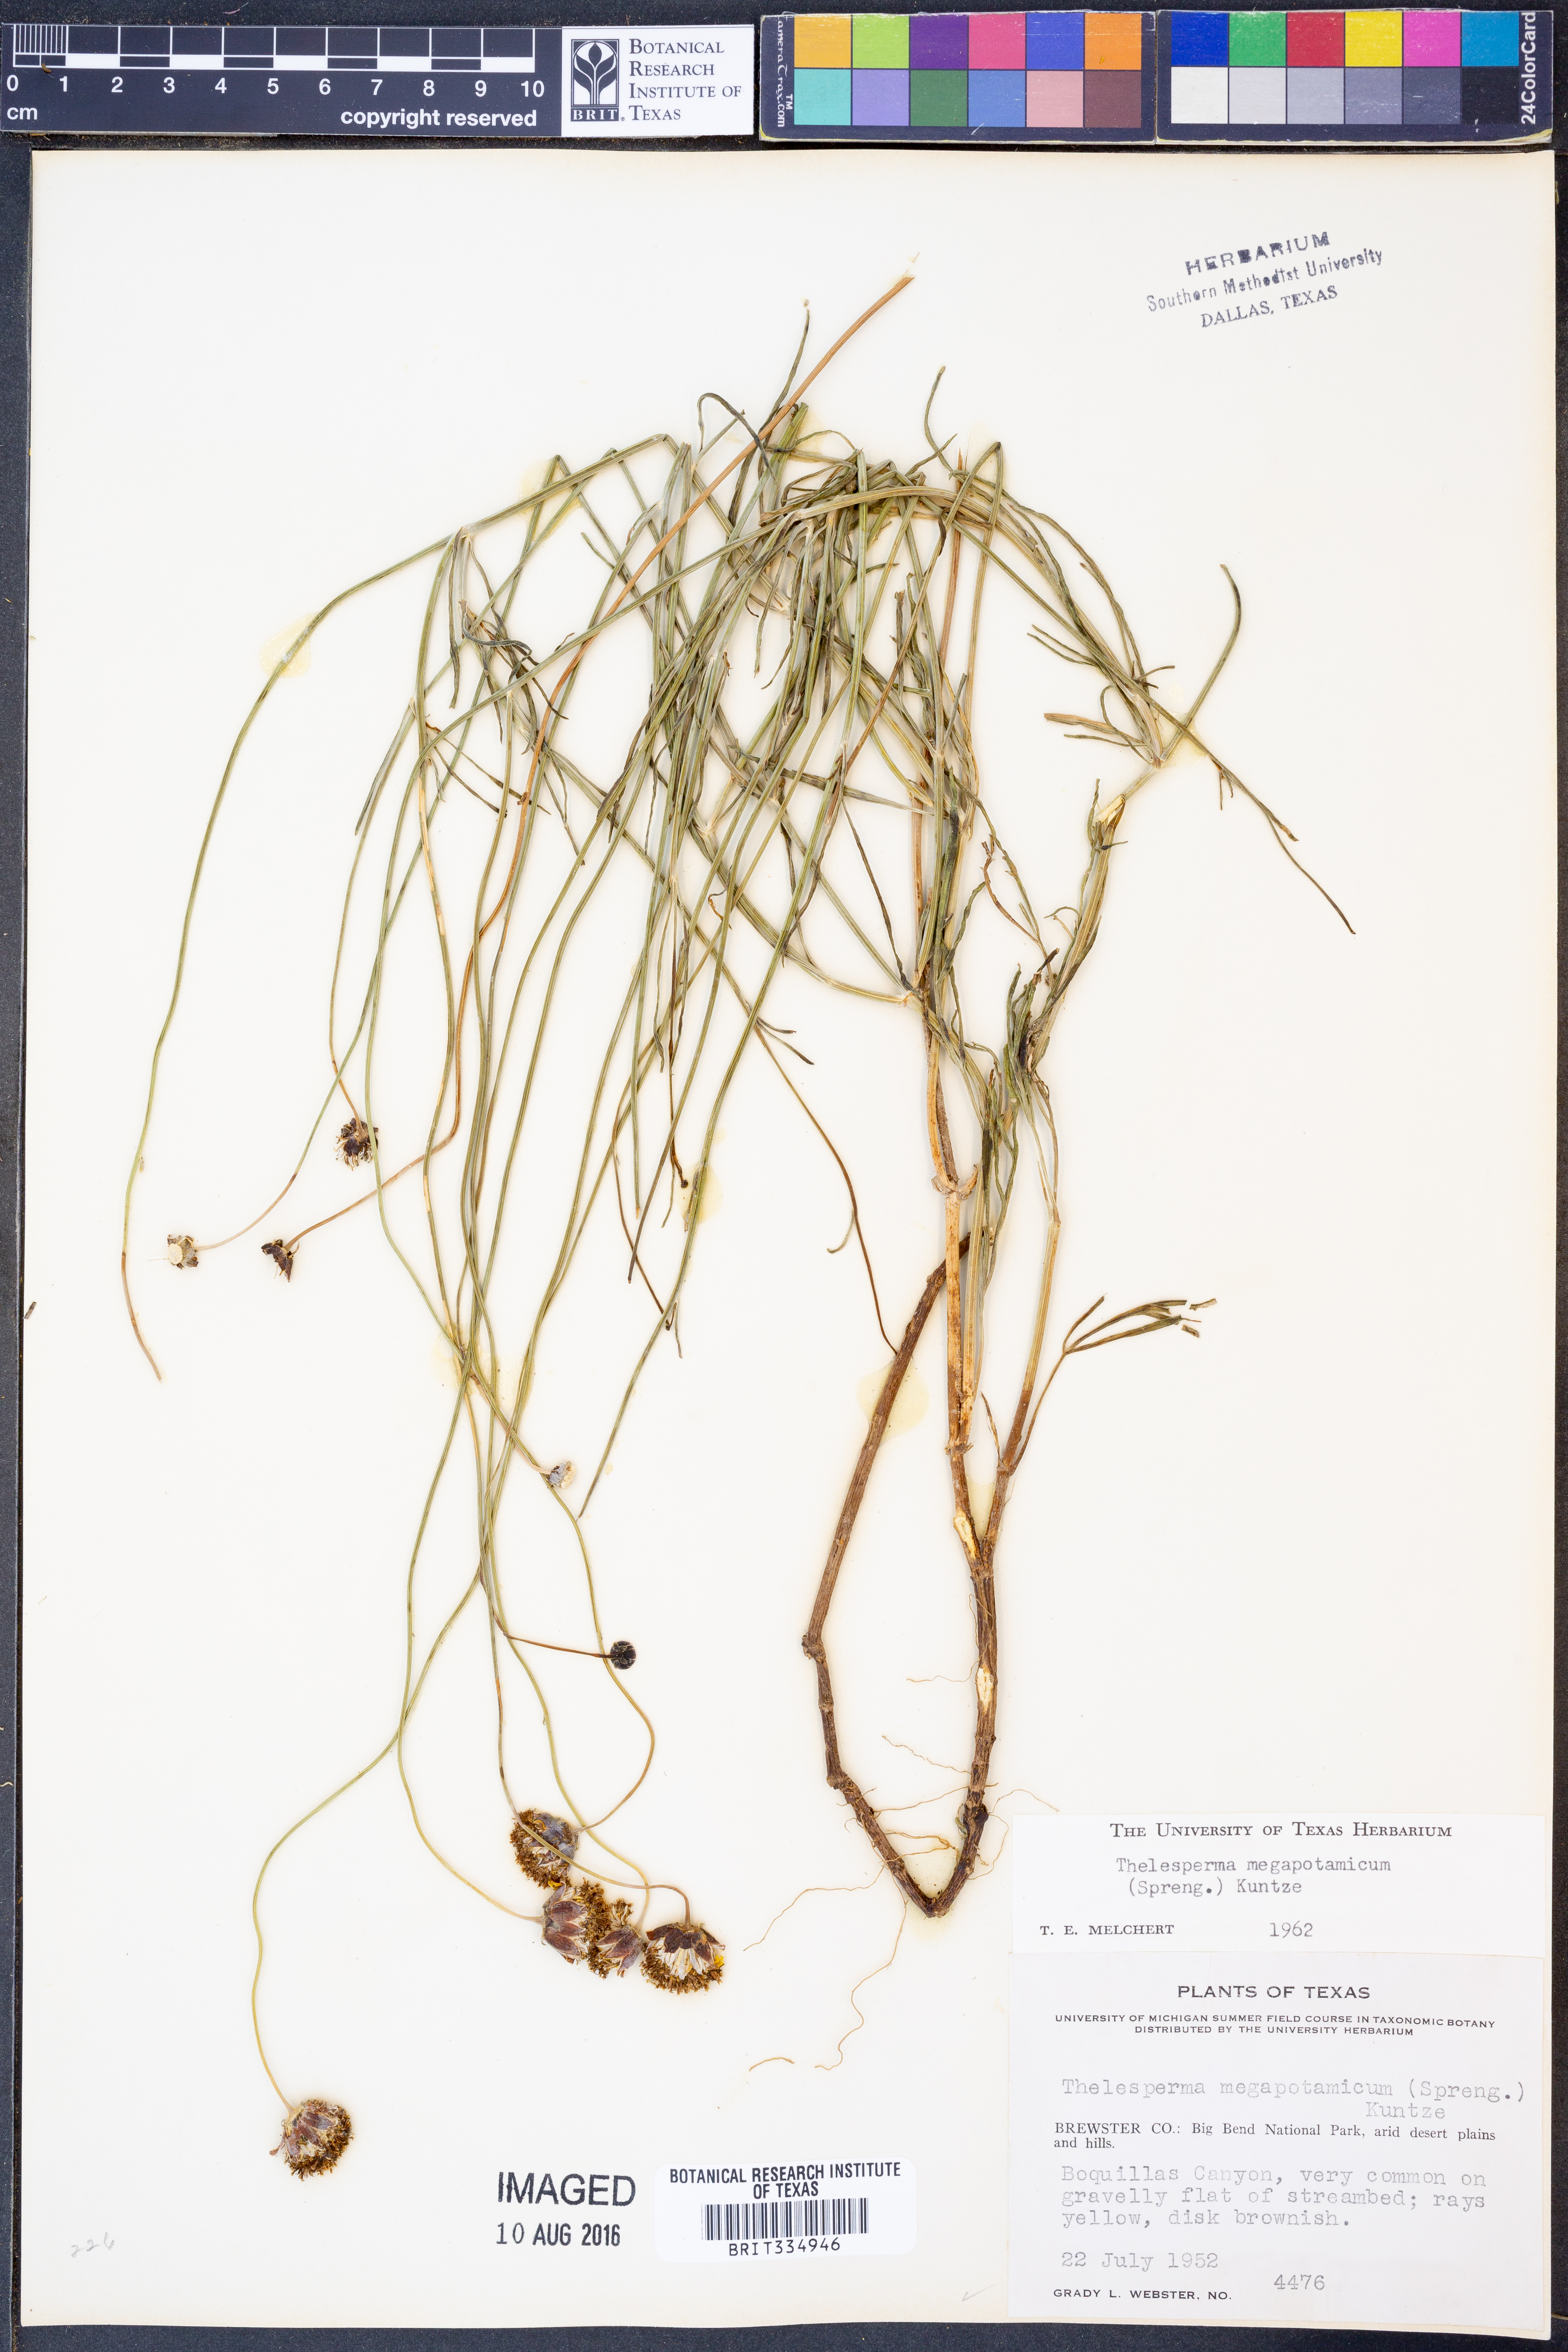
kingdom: Plantae
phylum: Tracheophyta
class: Magnoliopsida
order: Asterales
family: Asteraceae
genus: Thelesperma
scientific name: Thelesperma megapotamicum
